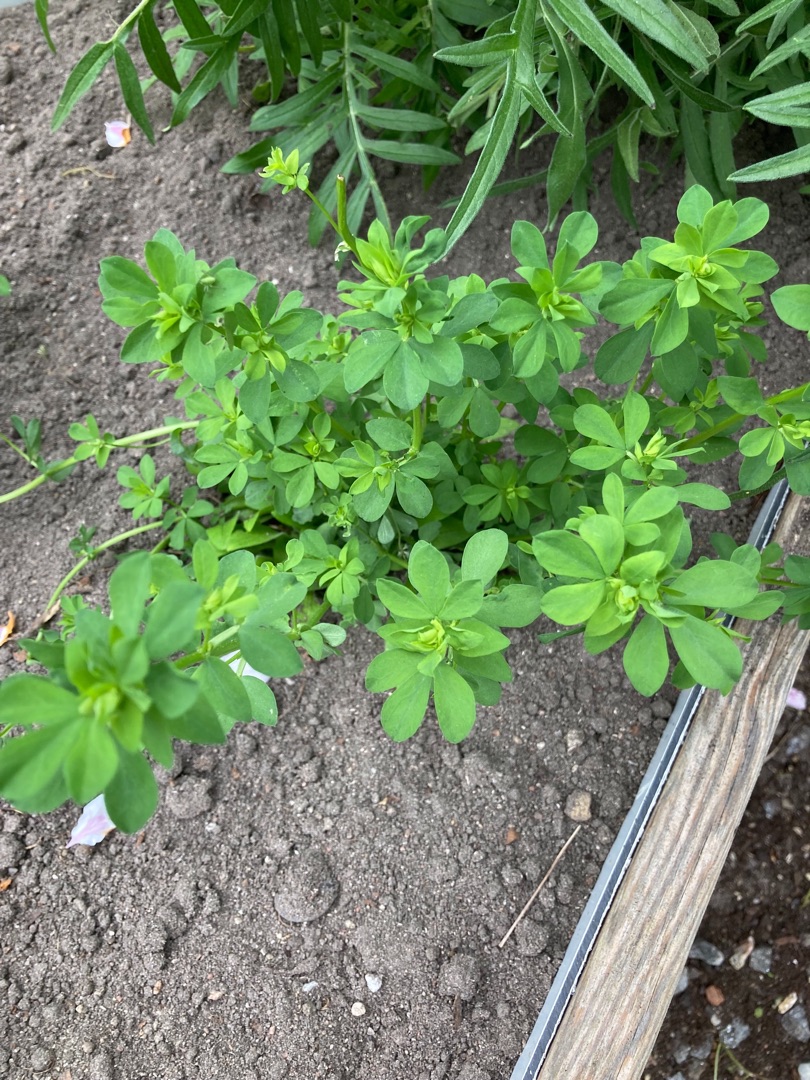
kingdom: Plantae
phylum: Tracheophyta
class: Magnoliopsida
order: Fabales
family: Fabaceae
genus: Lotus
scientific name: Lotus corniculatus
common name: Almindelig kællingetand
